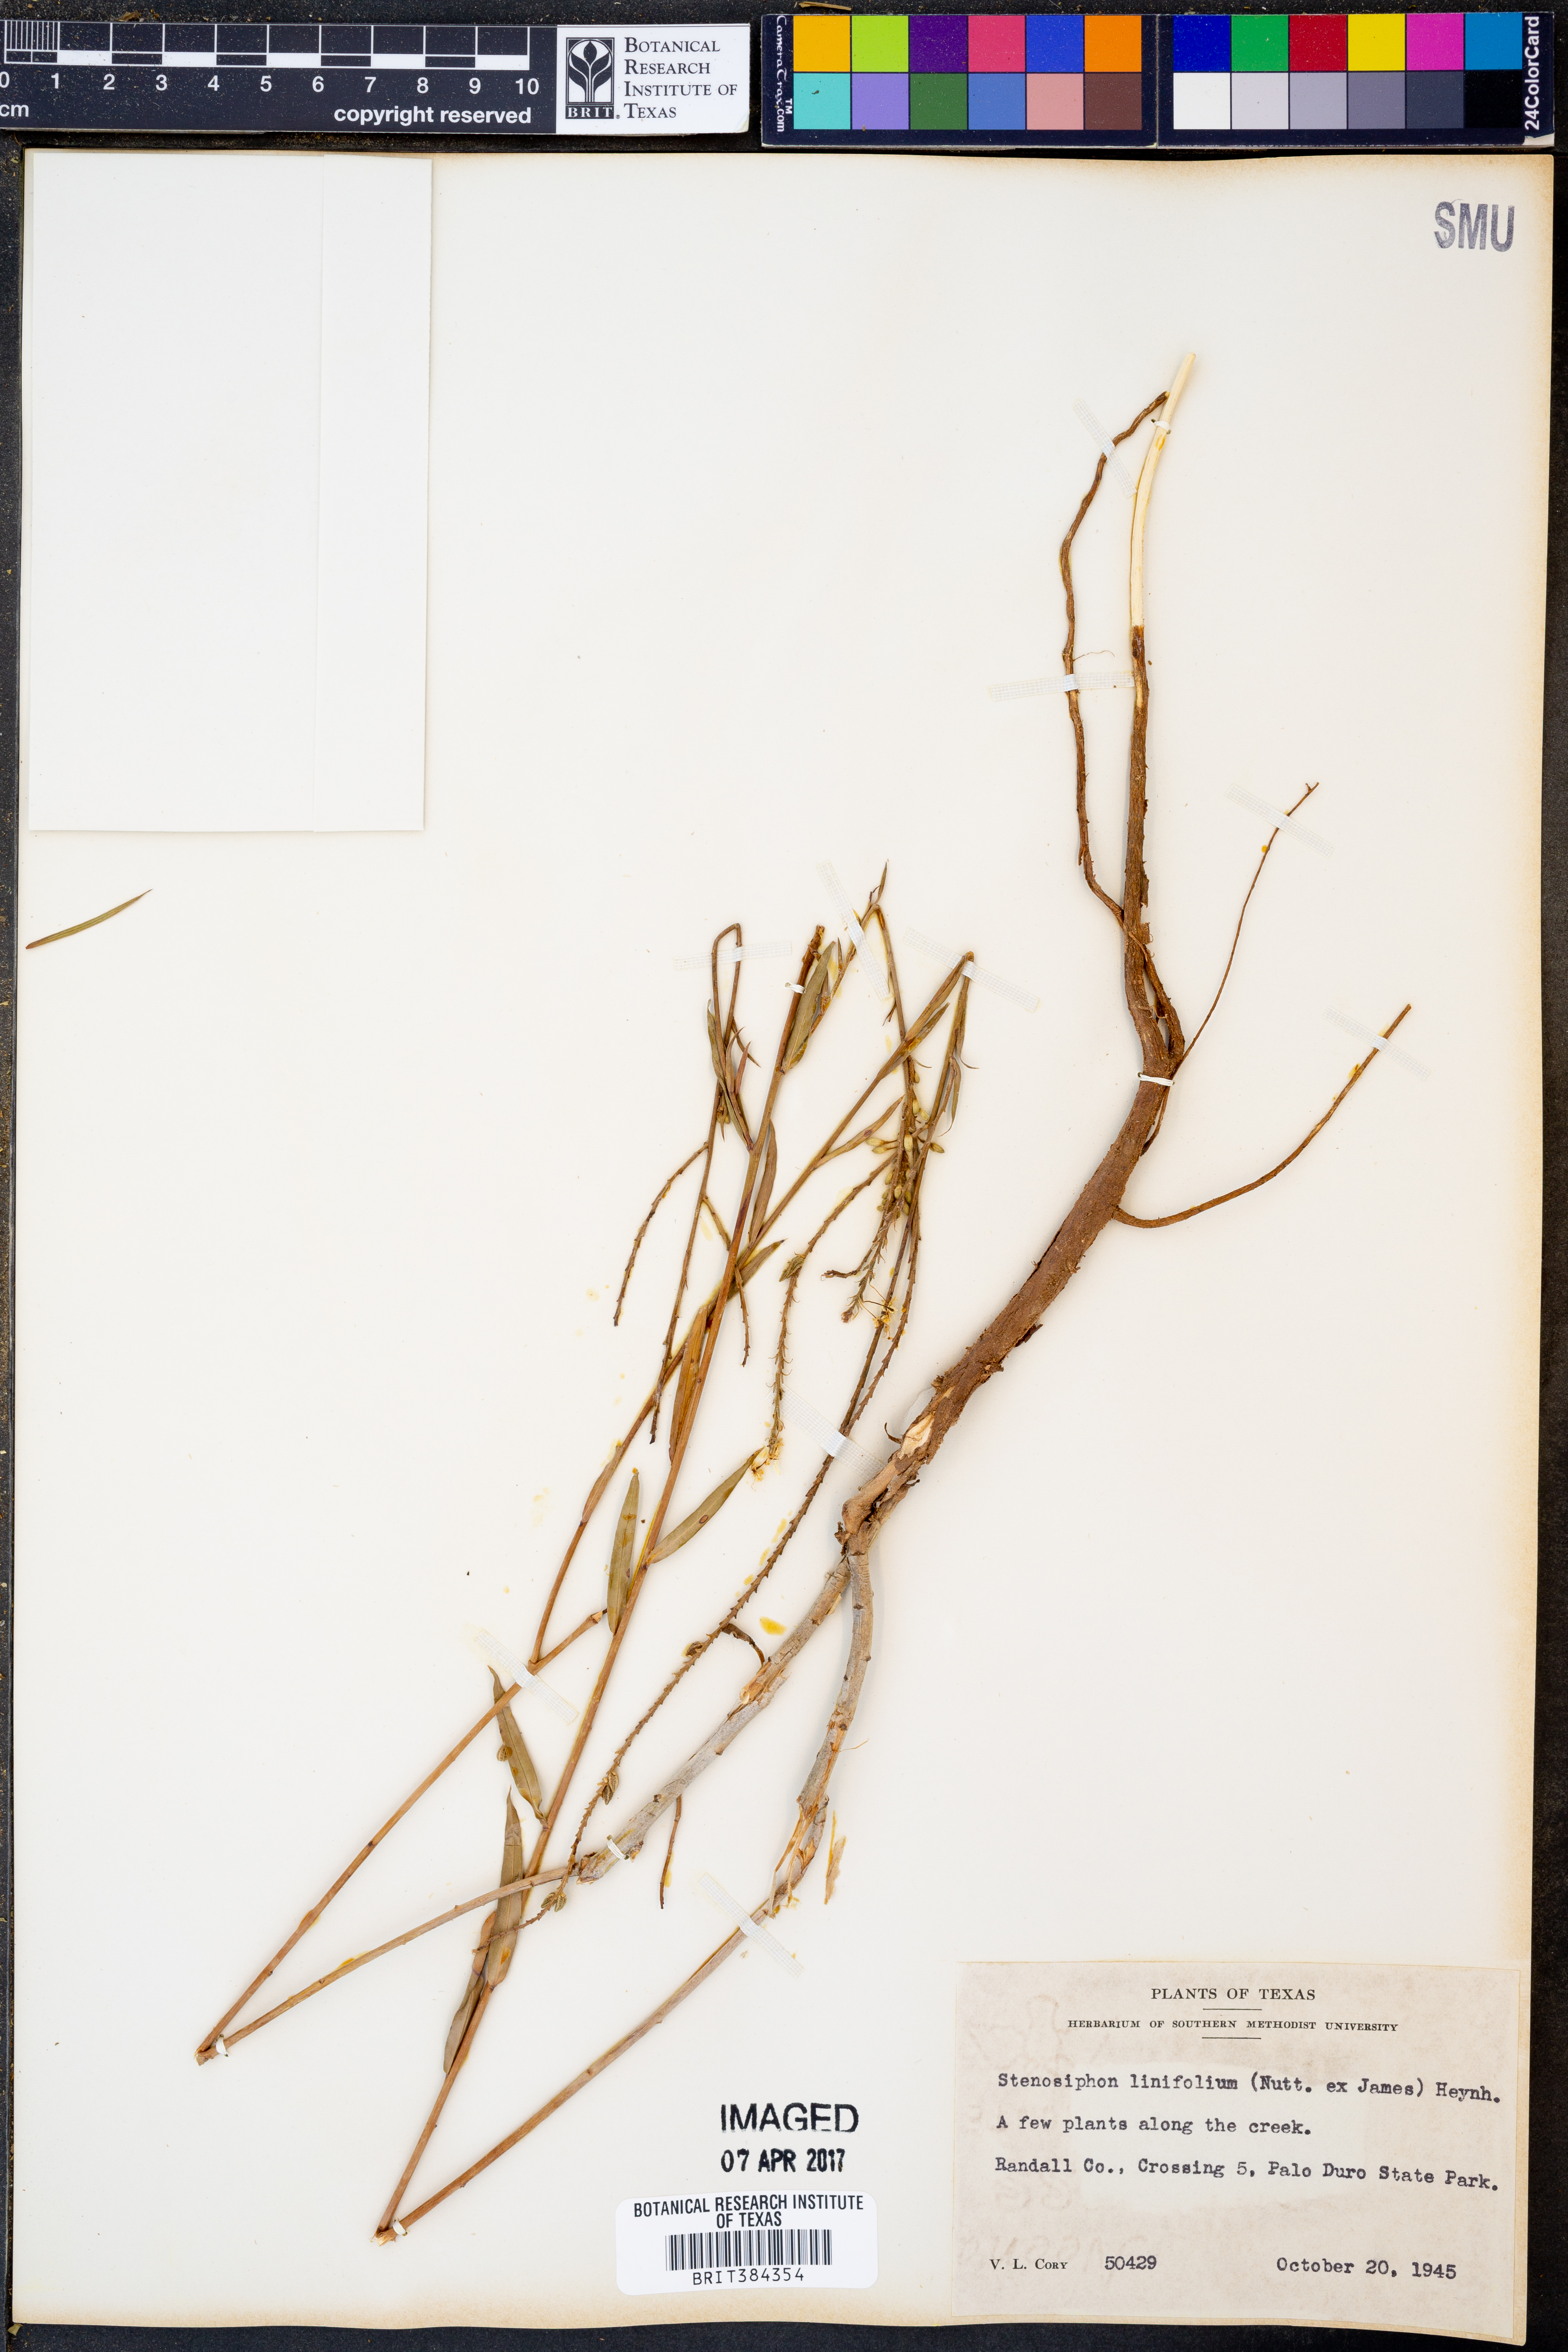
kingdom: Plantae
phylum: Tracheophyta
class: Magnoliopsida
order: Myrtales
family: Onagraceae
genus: Oenothera
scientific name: Oenothera glaucifolia
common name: False gaura
